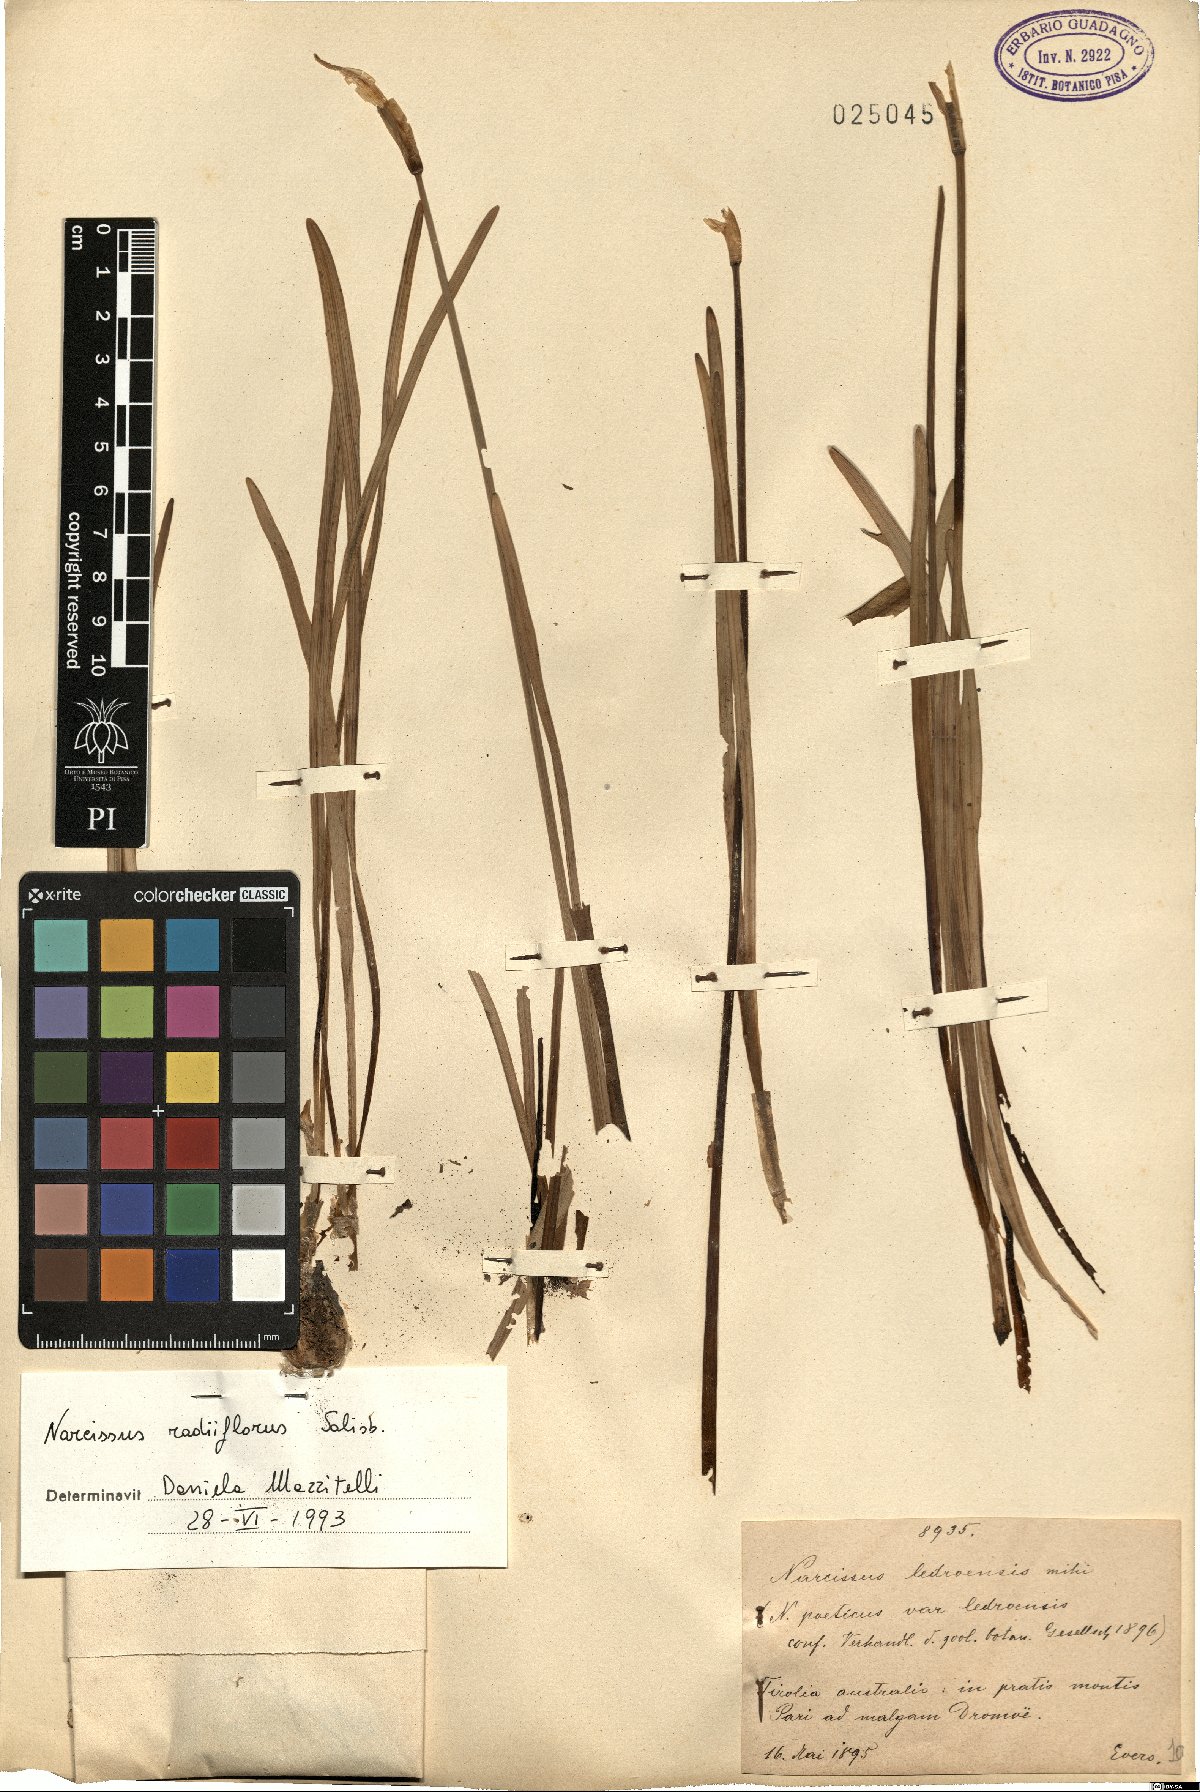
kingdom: Plantae
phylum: Tracheophyta
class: Liliopsida
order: Asparagales
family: Amaryllidaceae
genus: Narcissus
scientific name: Narcissus poeticus
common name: Pheasant's-eye daffodil
